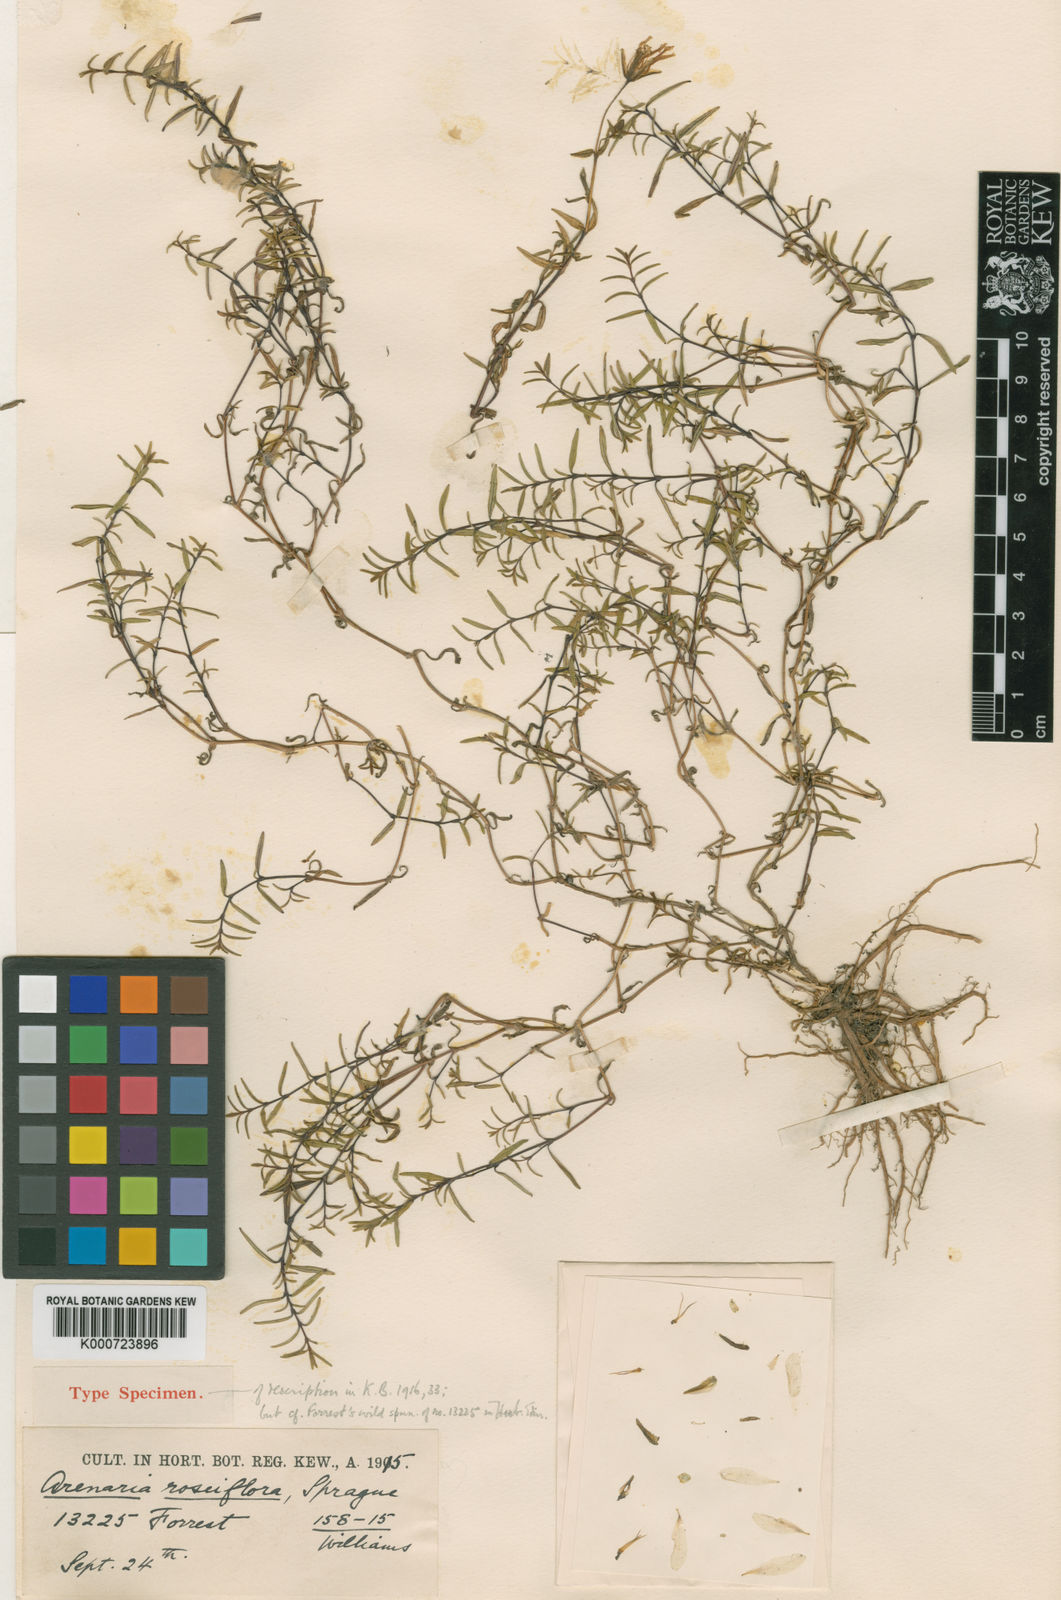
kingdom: Plantae
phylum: Tracheophyta
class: Magnoliopsida
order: Caryophyllales
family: Caryophyllaceae
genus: Odontostemma
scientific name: Odontostemma roseiflorum
